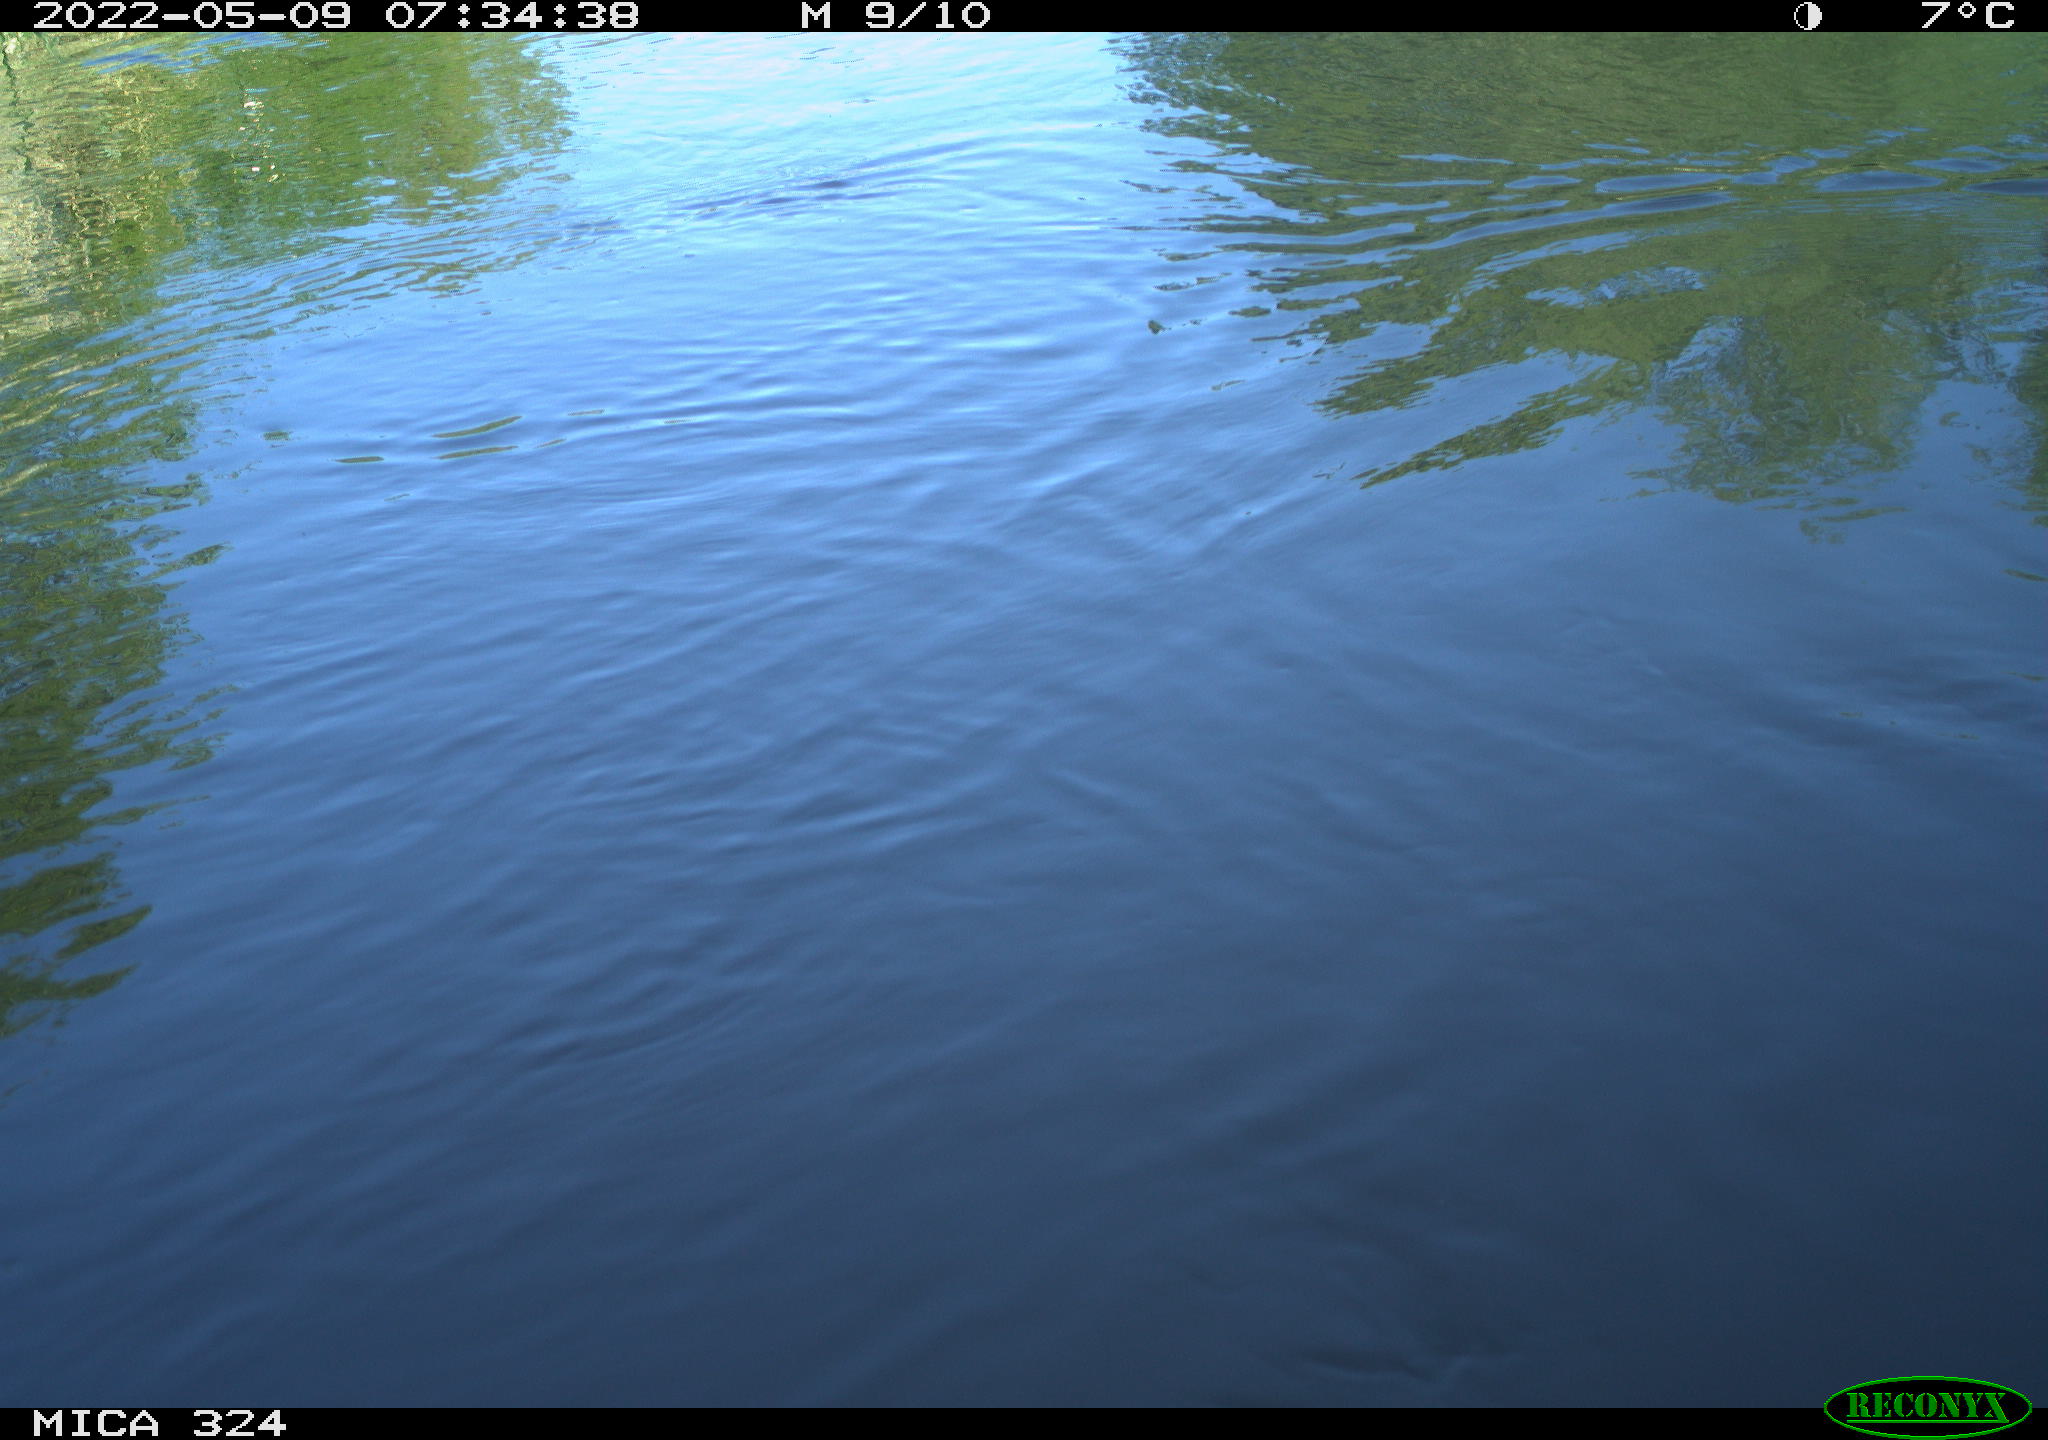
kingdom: Animalia
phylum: Chordata
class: Aves
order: Gruiformes
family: Rallidae
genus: Gallinula
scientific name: Gallinula chloropus
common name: Common moorhen
